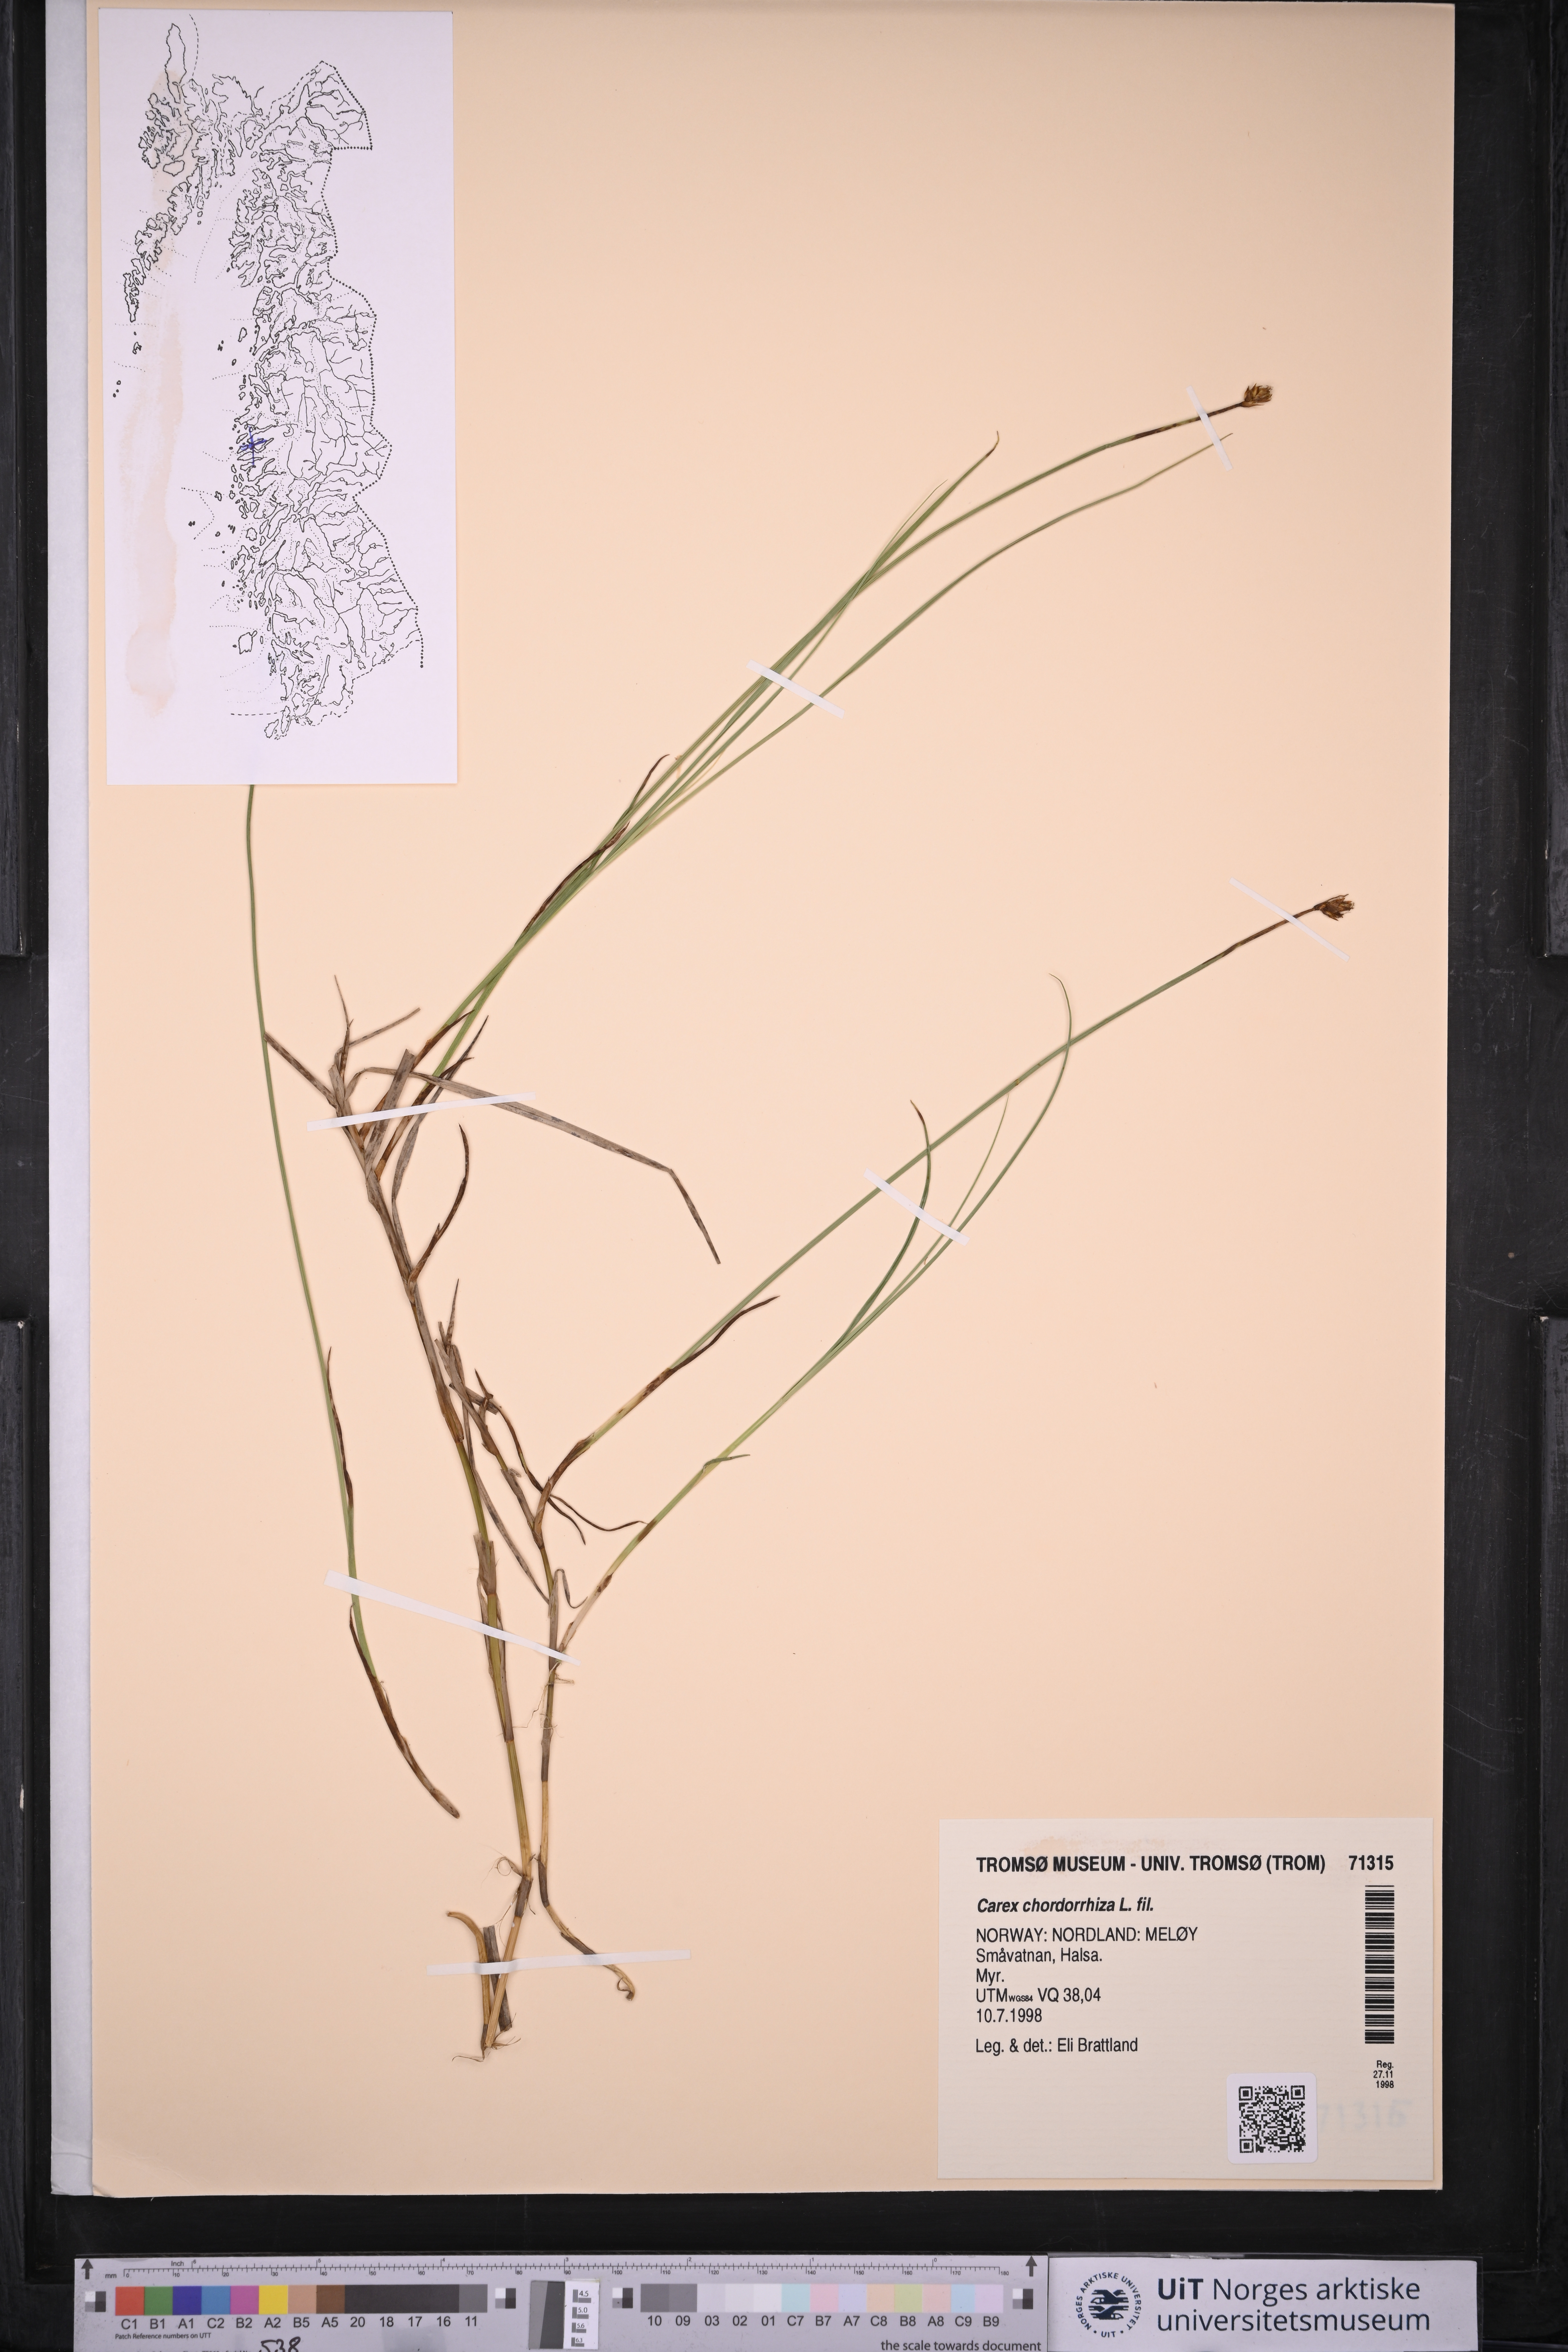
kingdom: Plantae
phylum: Tracheophyta
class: Liliopsida
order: Poales
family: Cyperaceae
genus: Carex
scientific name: Carex chordorrhiza
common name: String sedge
